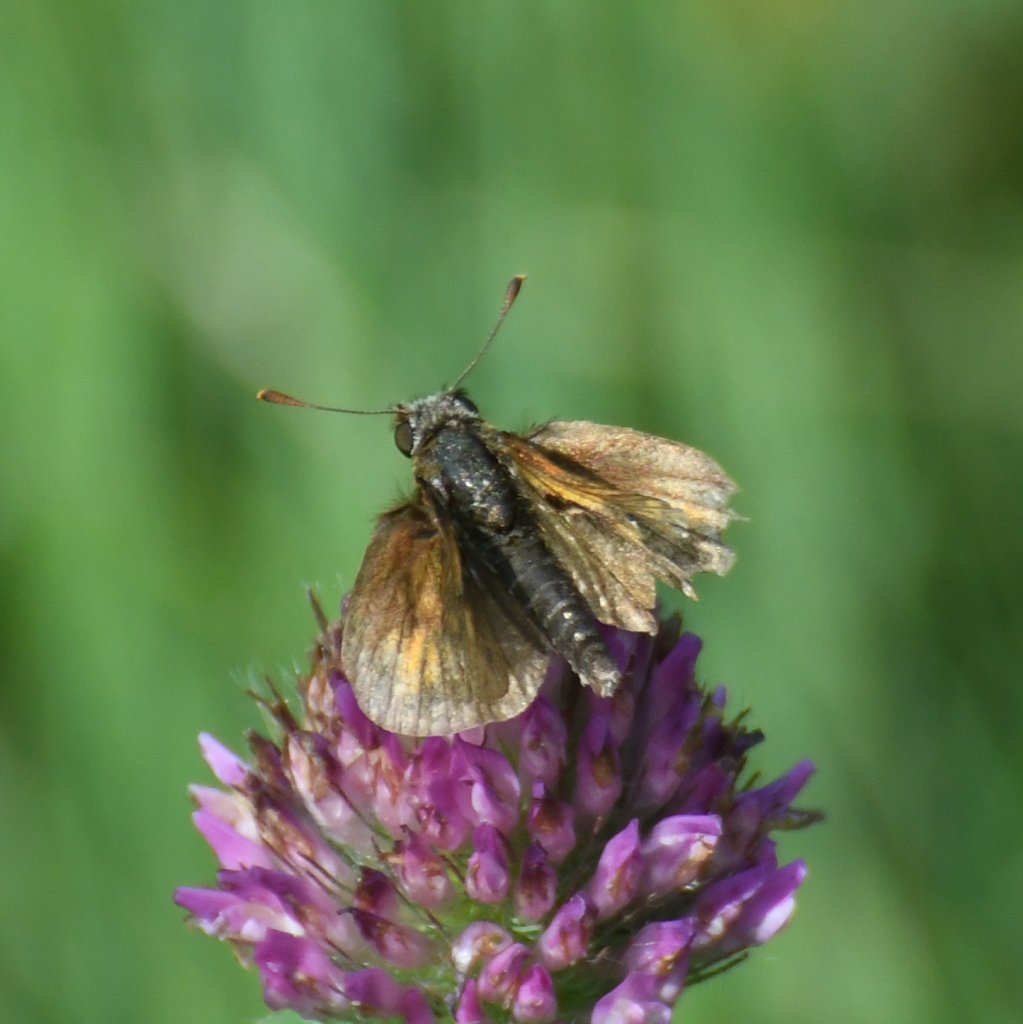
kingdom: Animalia
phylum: Arthropoda
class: Insecta
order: Lepidoptera
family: Hesperiidae
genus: Euphyes
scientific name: Euphyes vestris
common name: Dun Skipper
